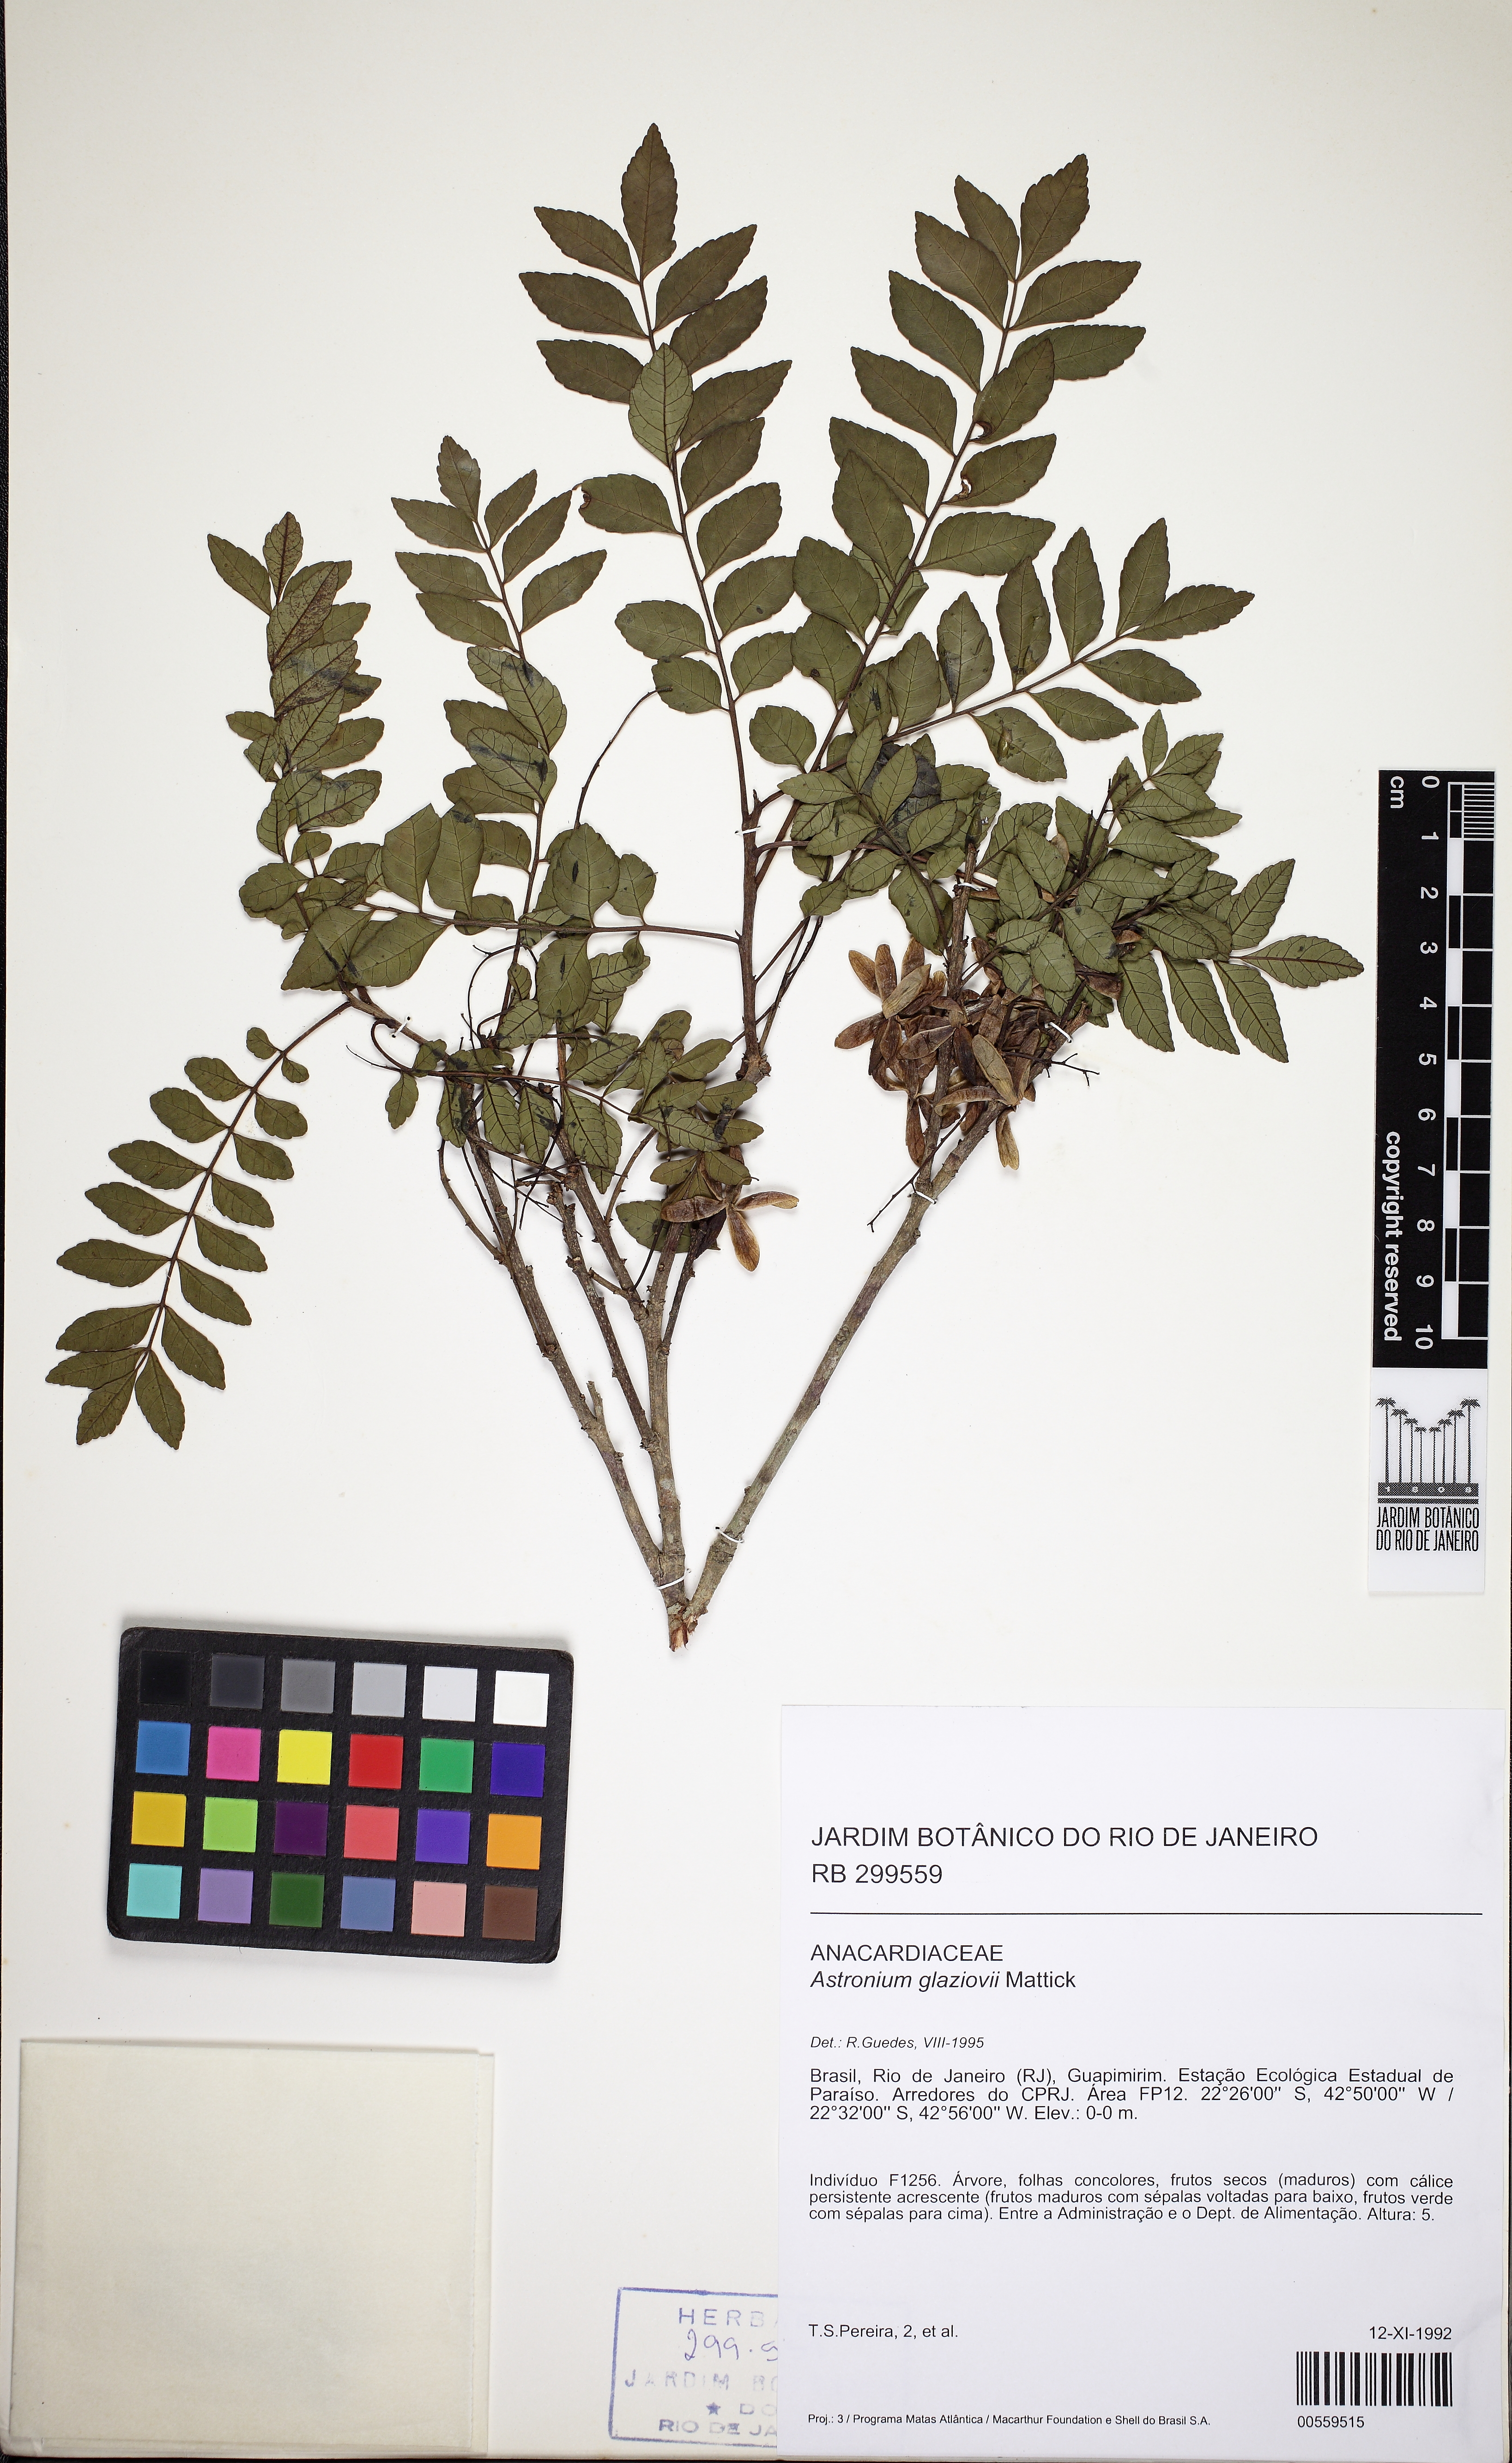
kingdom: Plantae
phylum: Tracheophyta
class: Magnoliopsida
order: Sapindales
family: Anacardiaceae
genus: Astronium
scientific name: Astronium glaziovii
